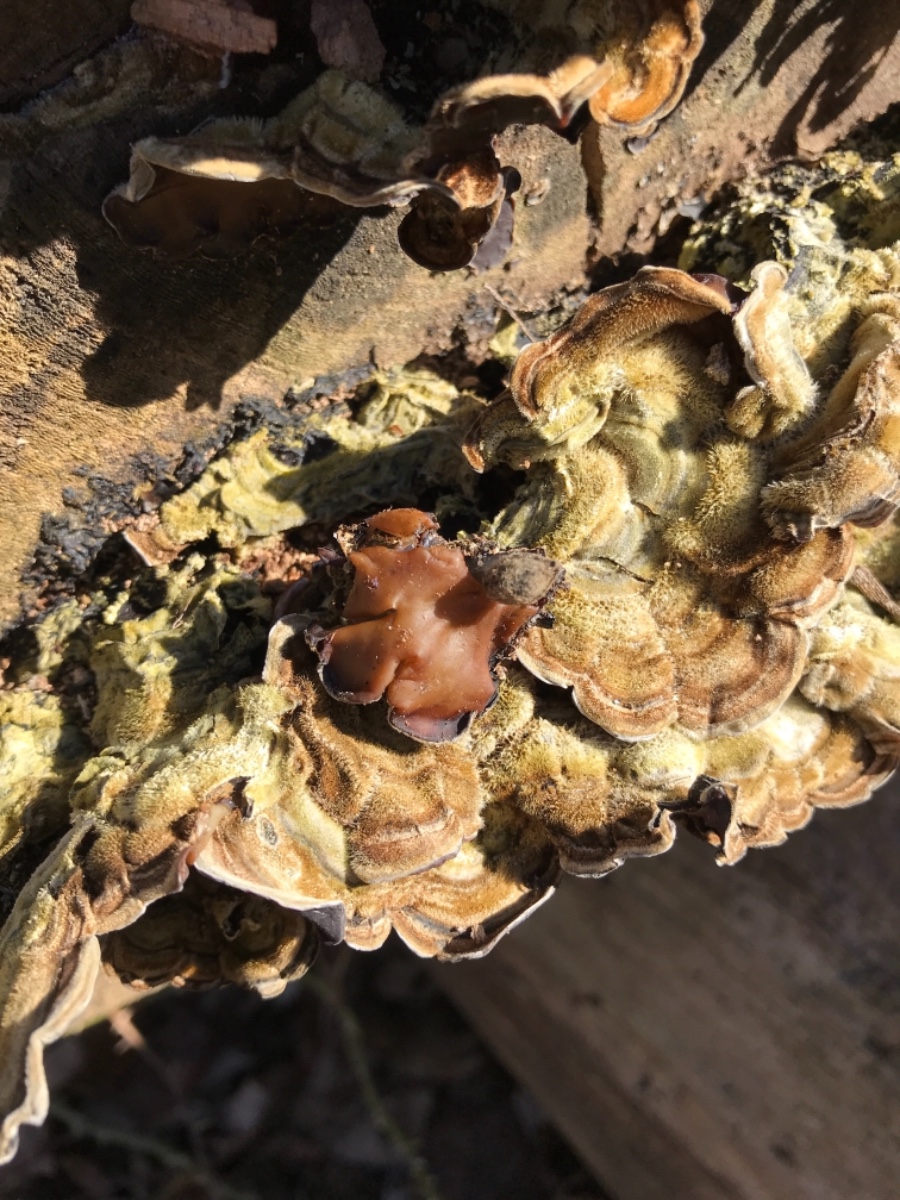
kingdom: Fungi
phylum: Basidiomycota
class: Agaricomycetes
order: Auriculariales
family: Auriculariaceae
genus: Auricularia
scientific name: Auricularia mesenterica
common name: håret judasøre
